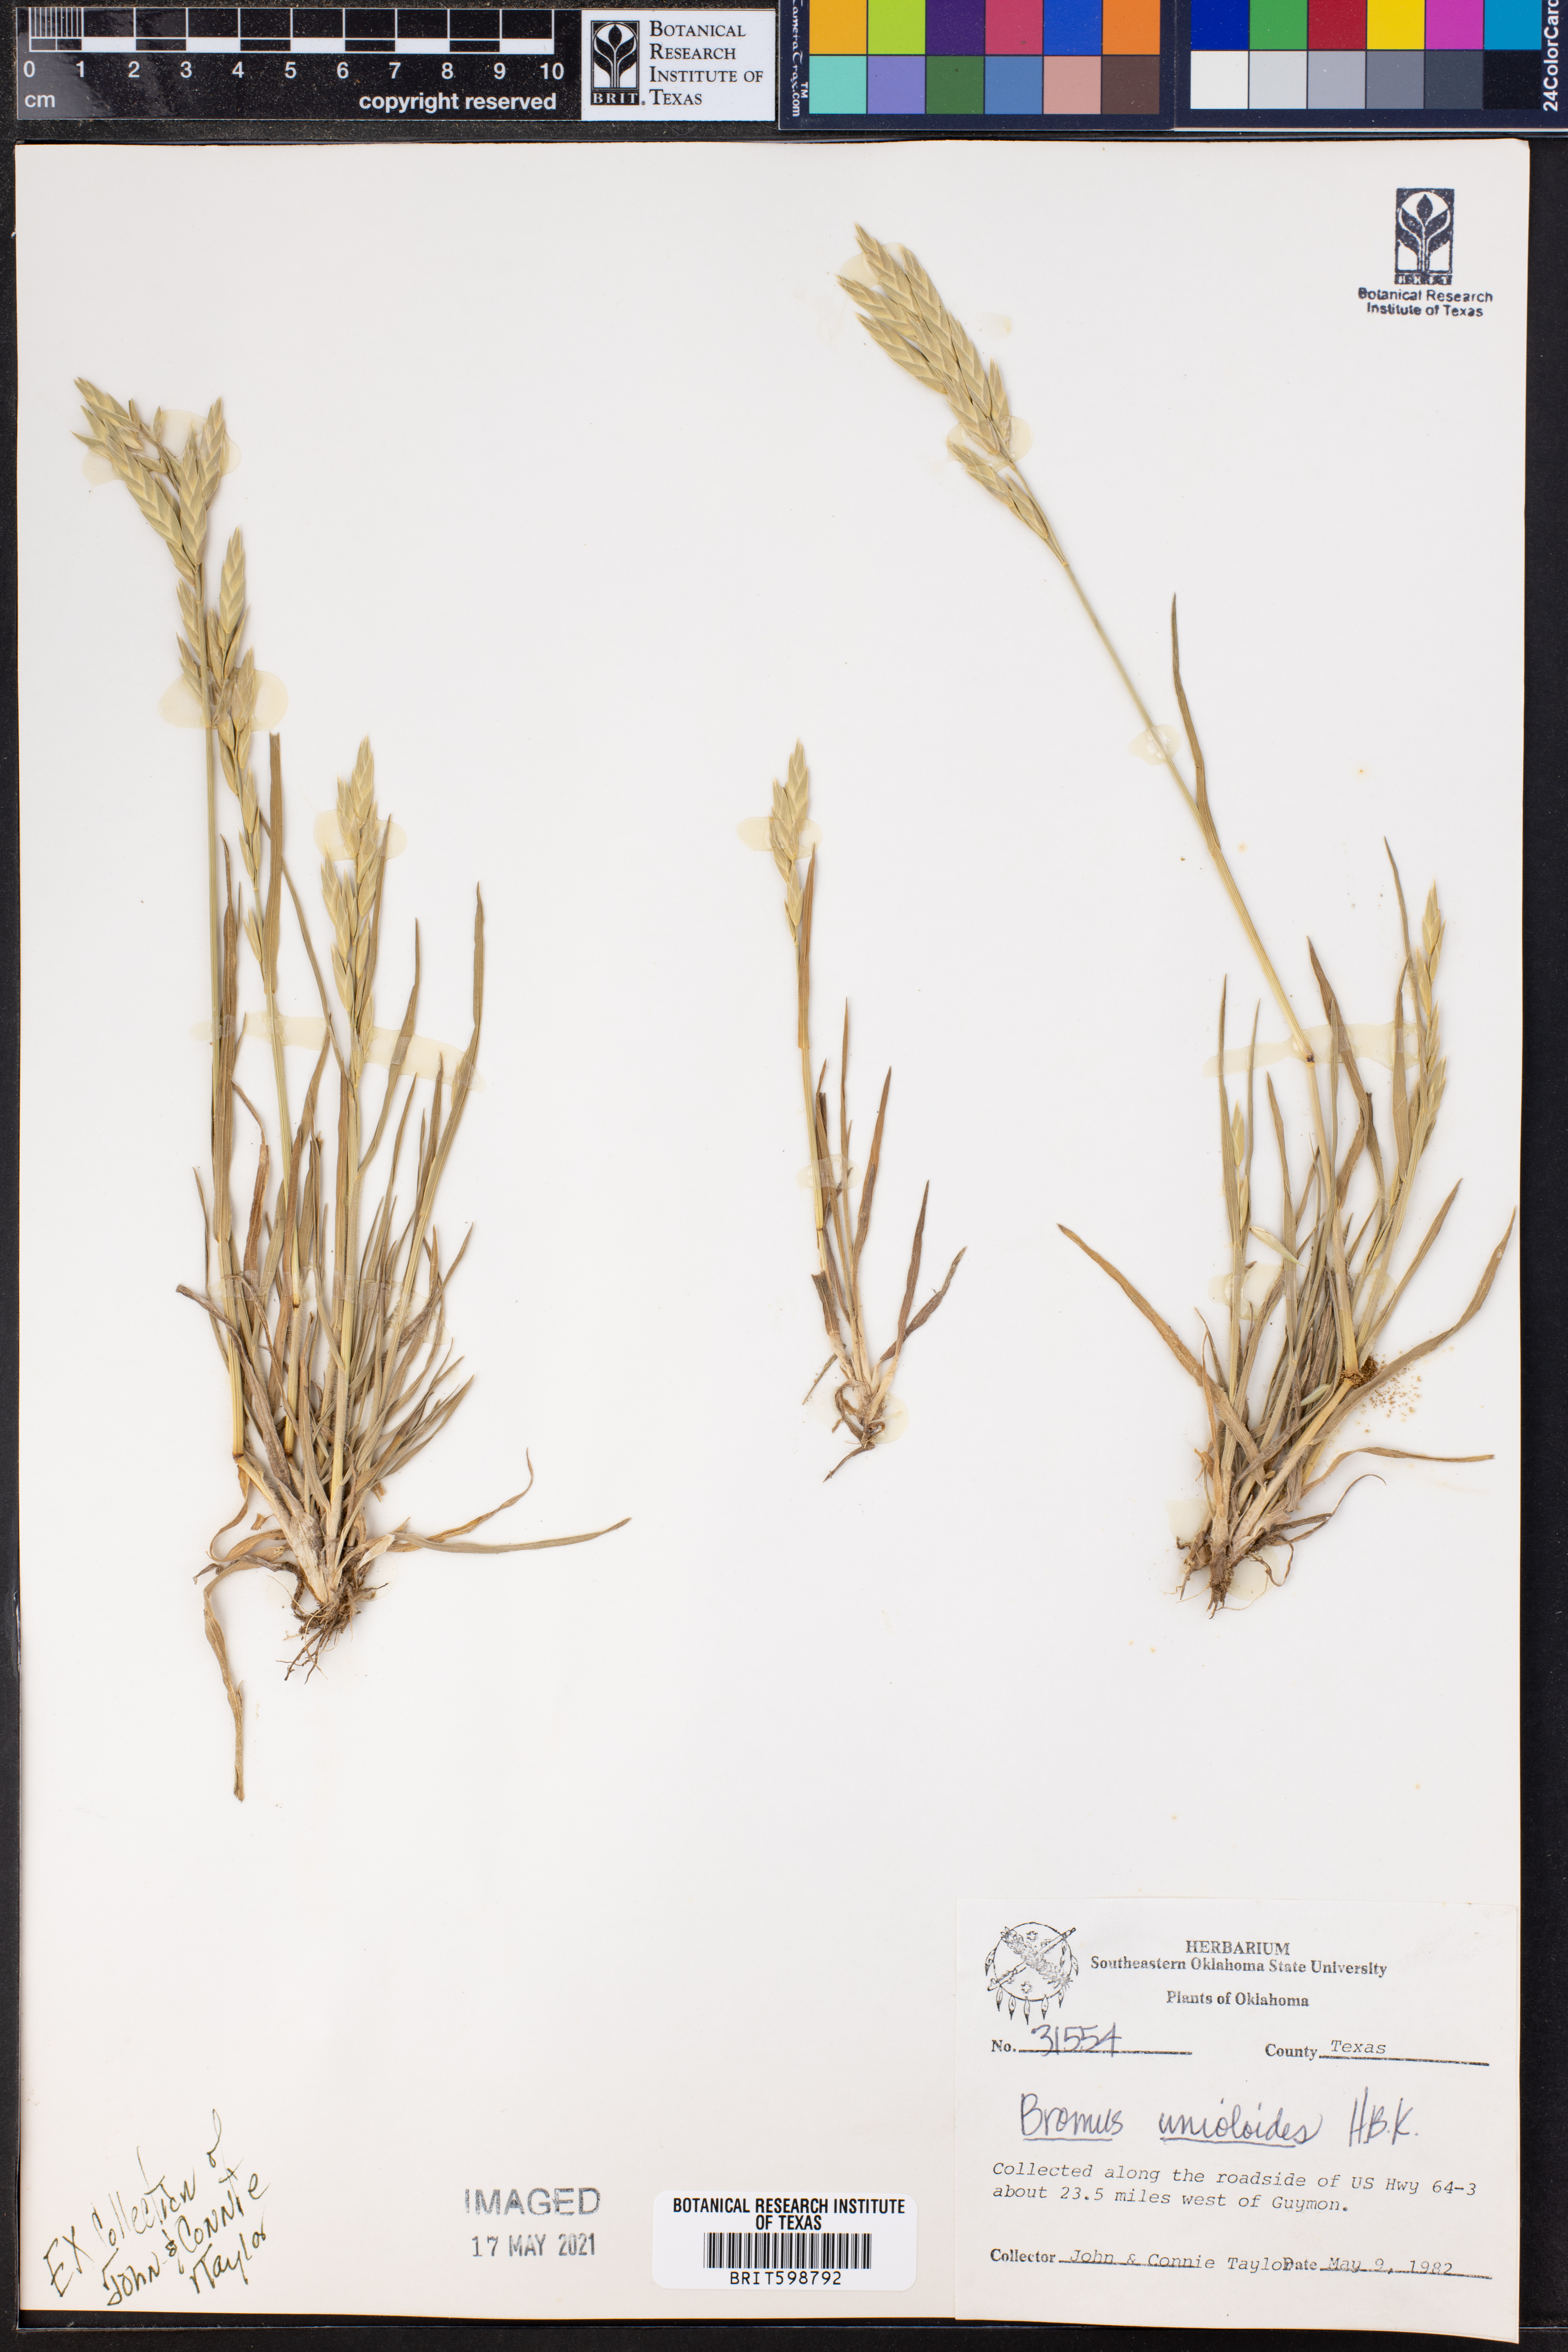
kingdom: Plantae
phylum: Tracheophyta
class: Liliopsida
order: Poales
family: Poaceae
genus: Bromus
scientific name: Bromus catharticus
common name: Rescuegrass
